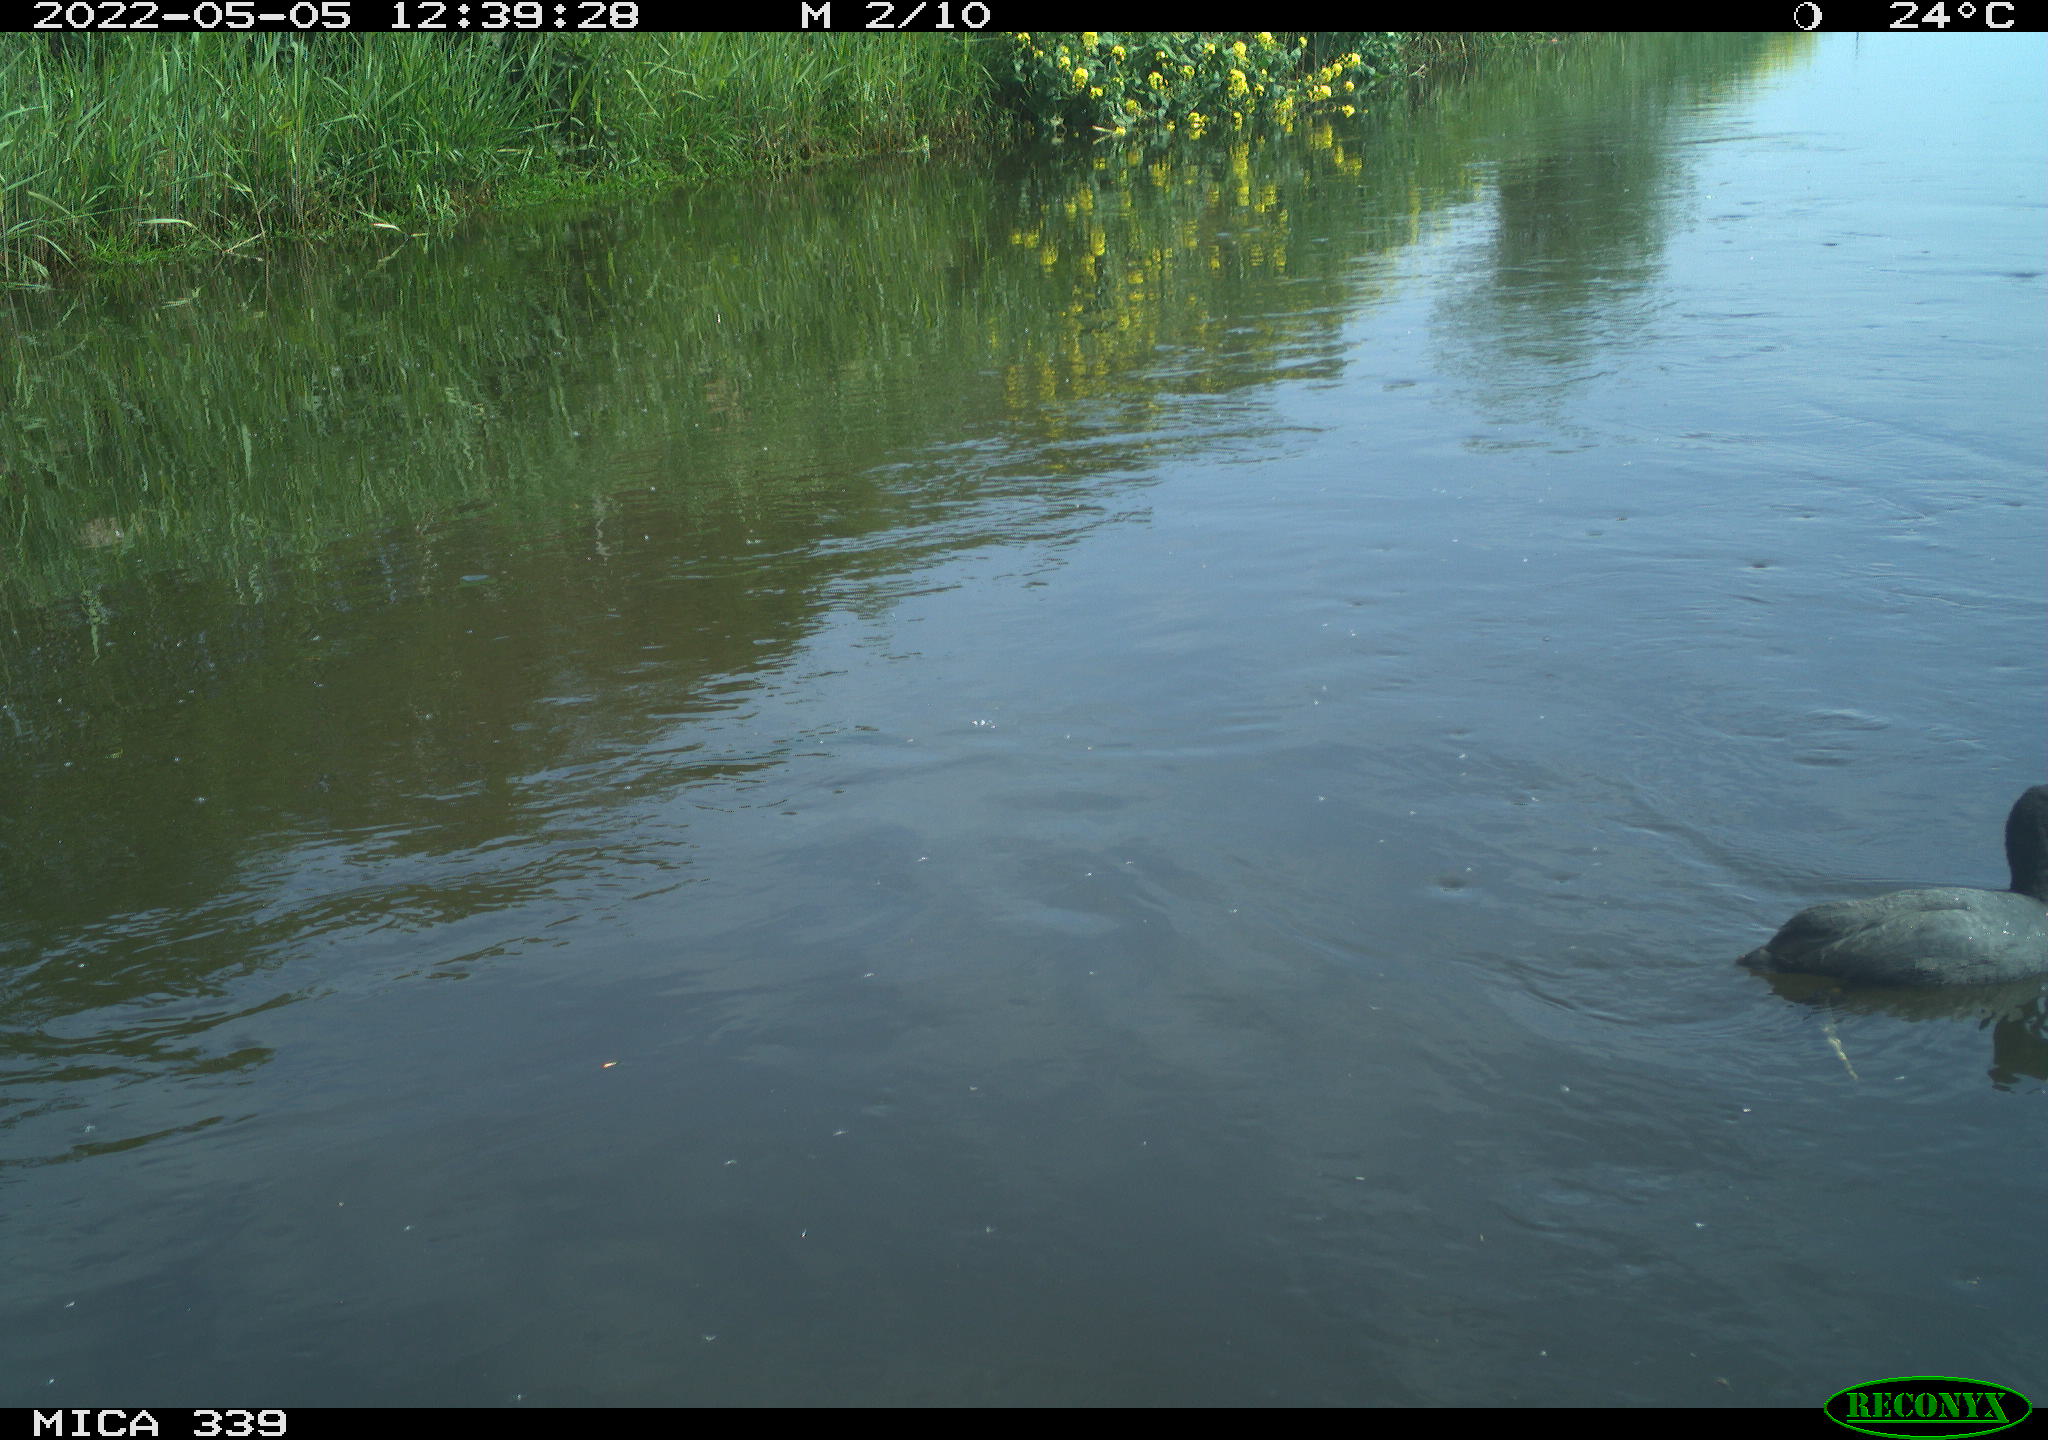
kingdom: Animalia
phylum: Chordata
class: Aves
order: Gruiformes
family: Rallidae
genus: Fulica
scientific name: Fulica atra
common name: Eurasian coot
